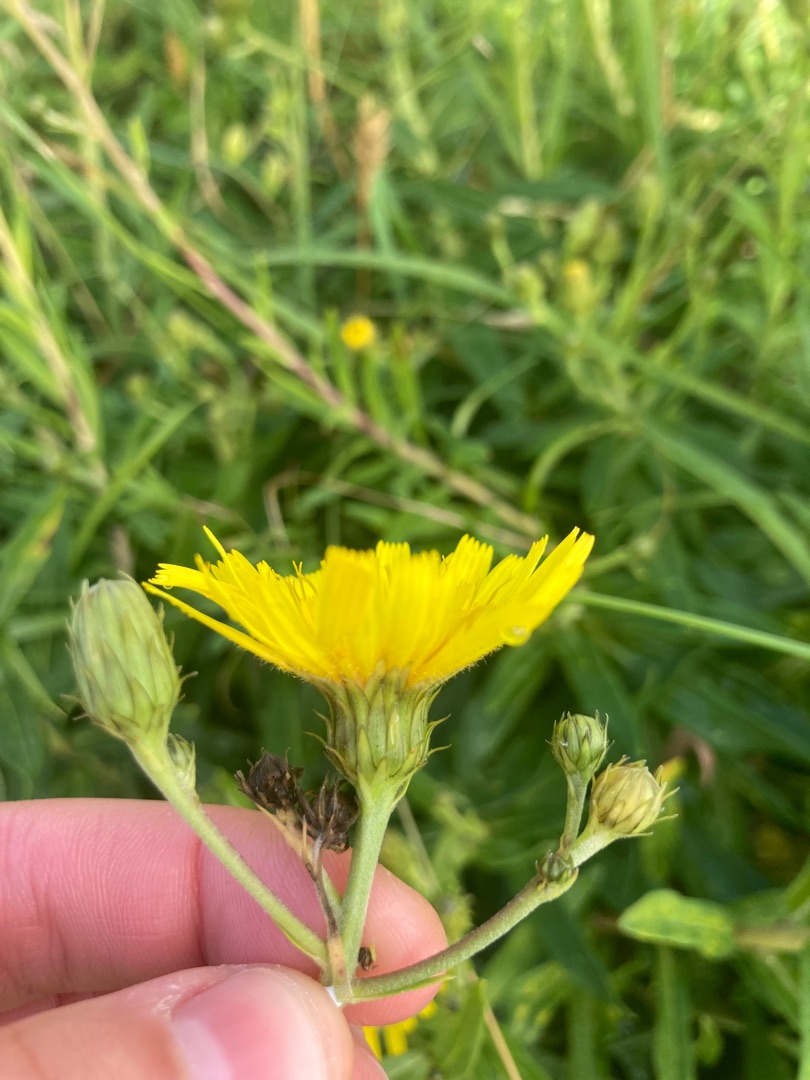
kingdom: Plantae
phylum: Tracheophyta
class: Magnoliopsida
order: Asterales
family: Asteraceae
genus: Hieracium
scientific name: Hieracium umbellatum
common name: Smalbladet høgeurt
